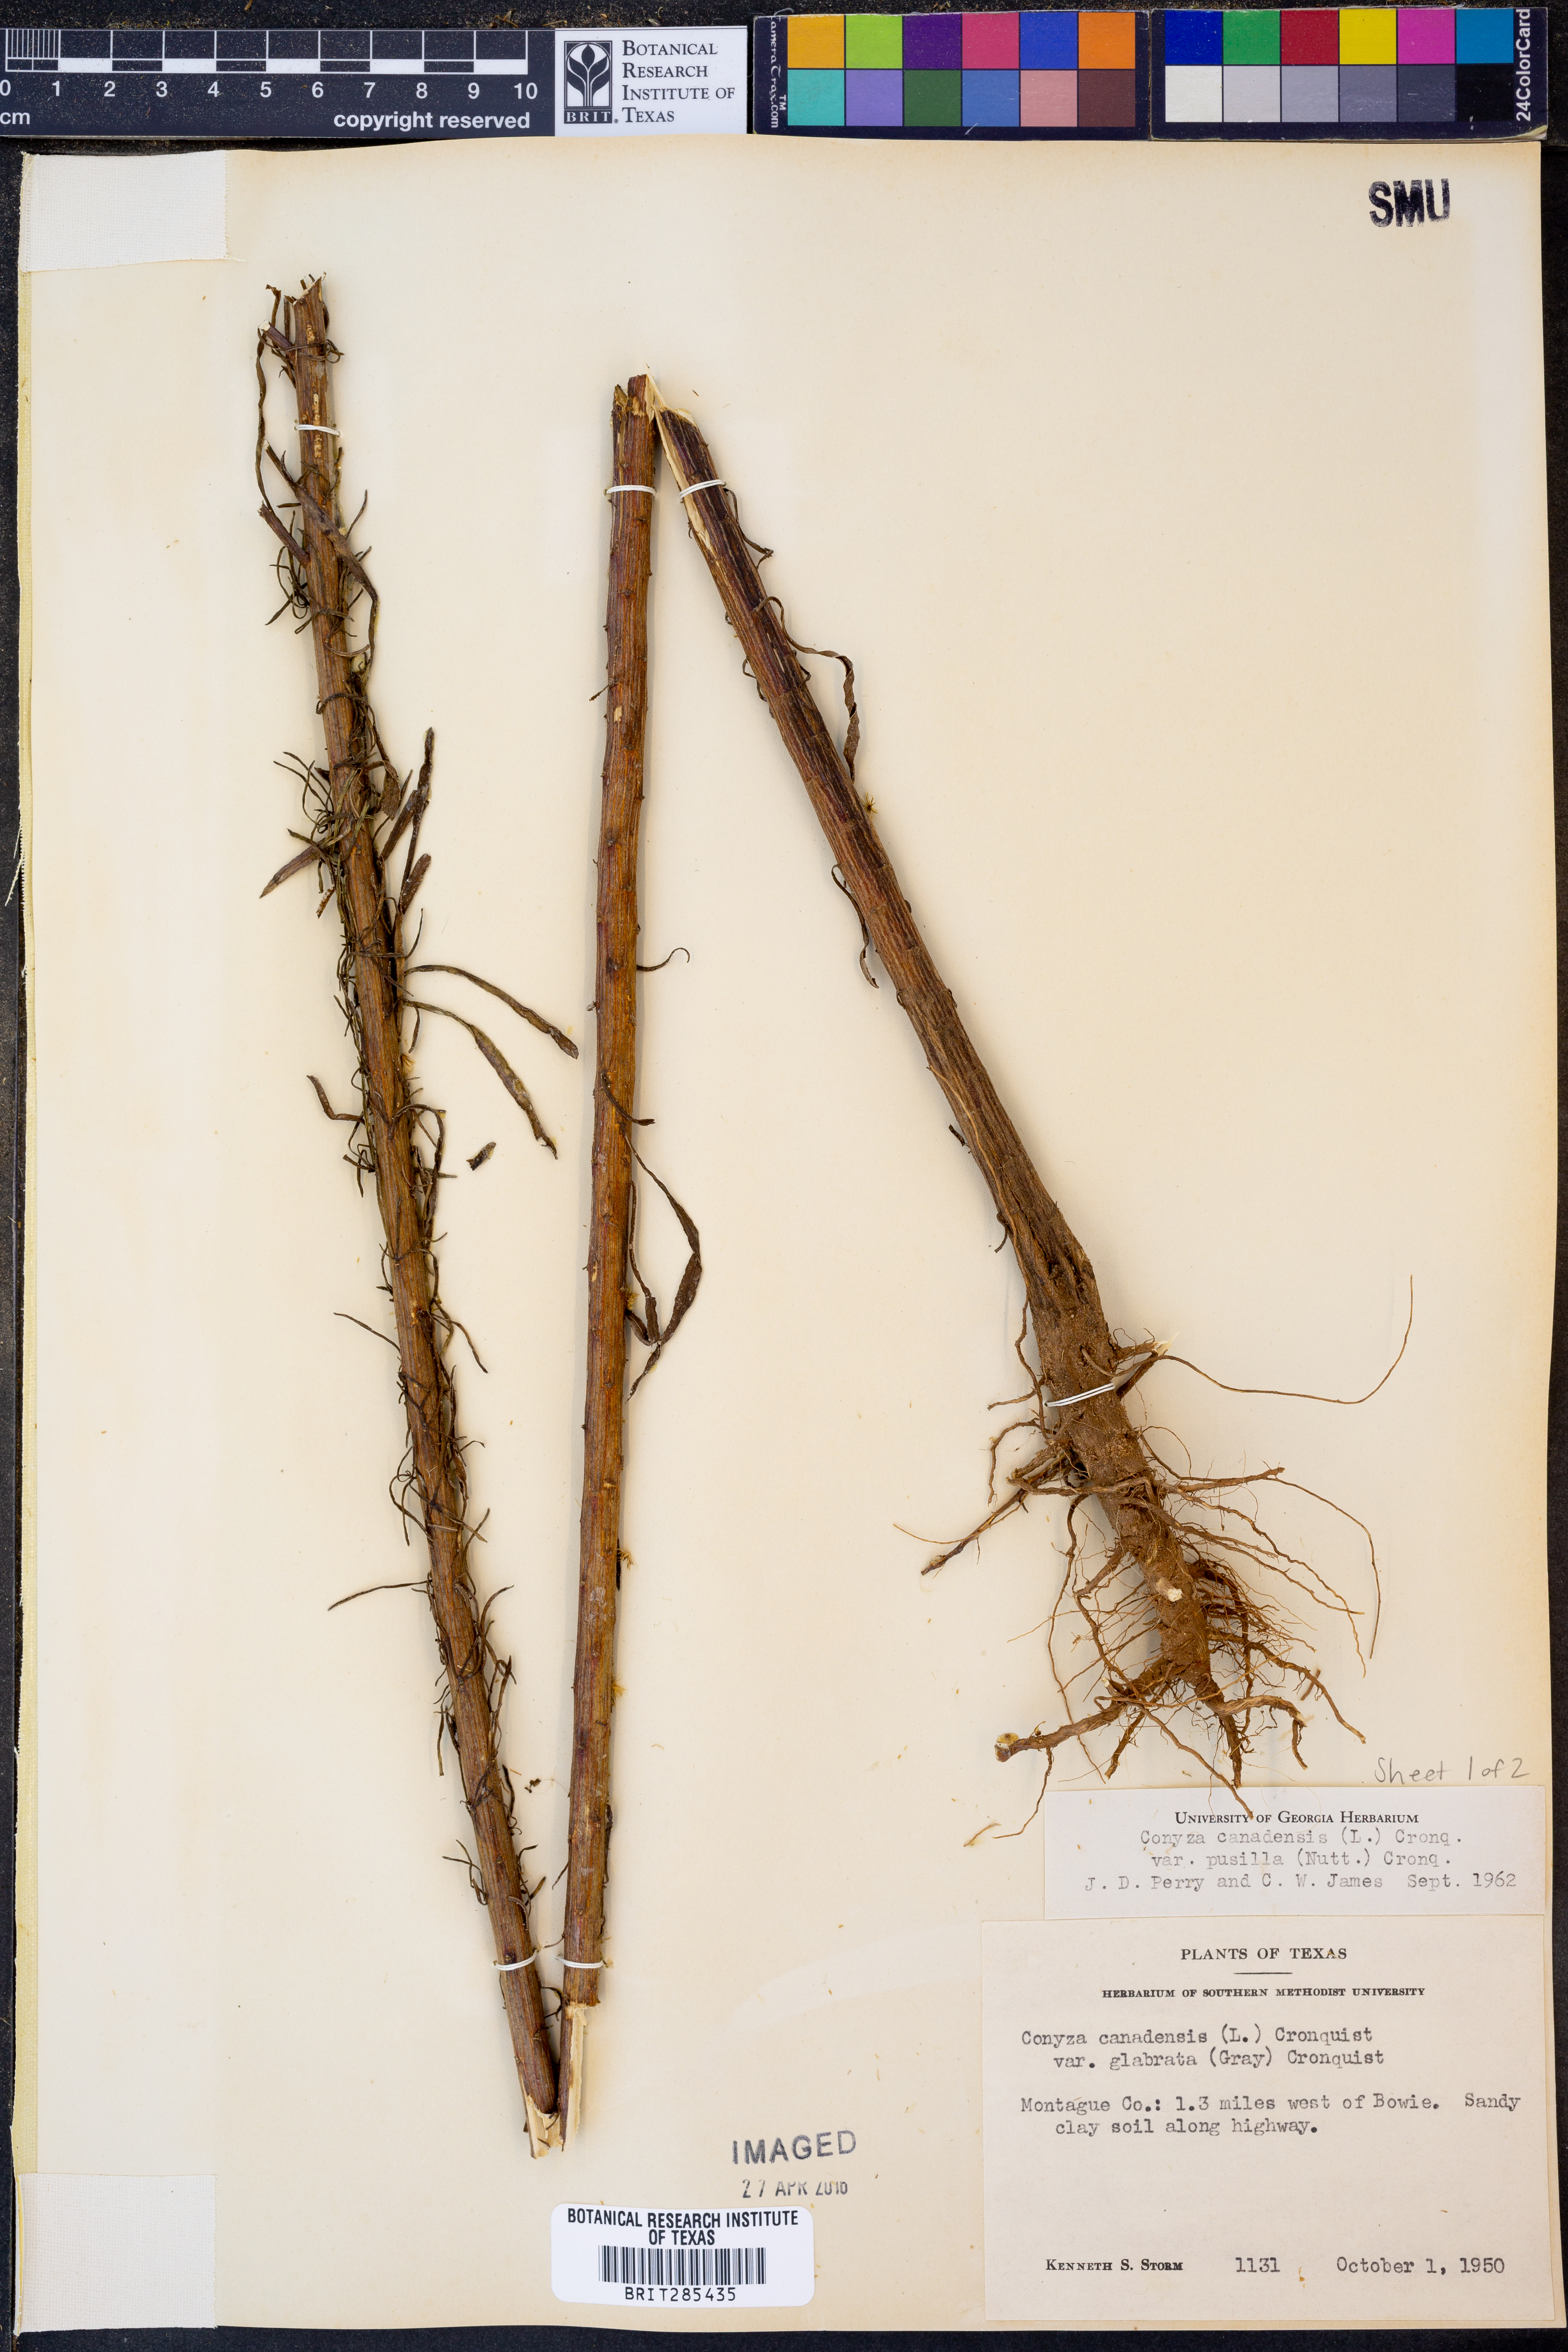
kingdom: Plantae
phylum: Tracheophyta
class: Magnoliopsida
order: Asterales
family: Asteraceae
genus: Erigeron
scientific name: Erigeron canadensis
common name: Canadian fleabane
